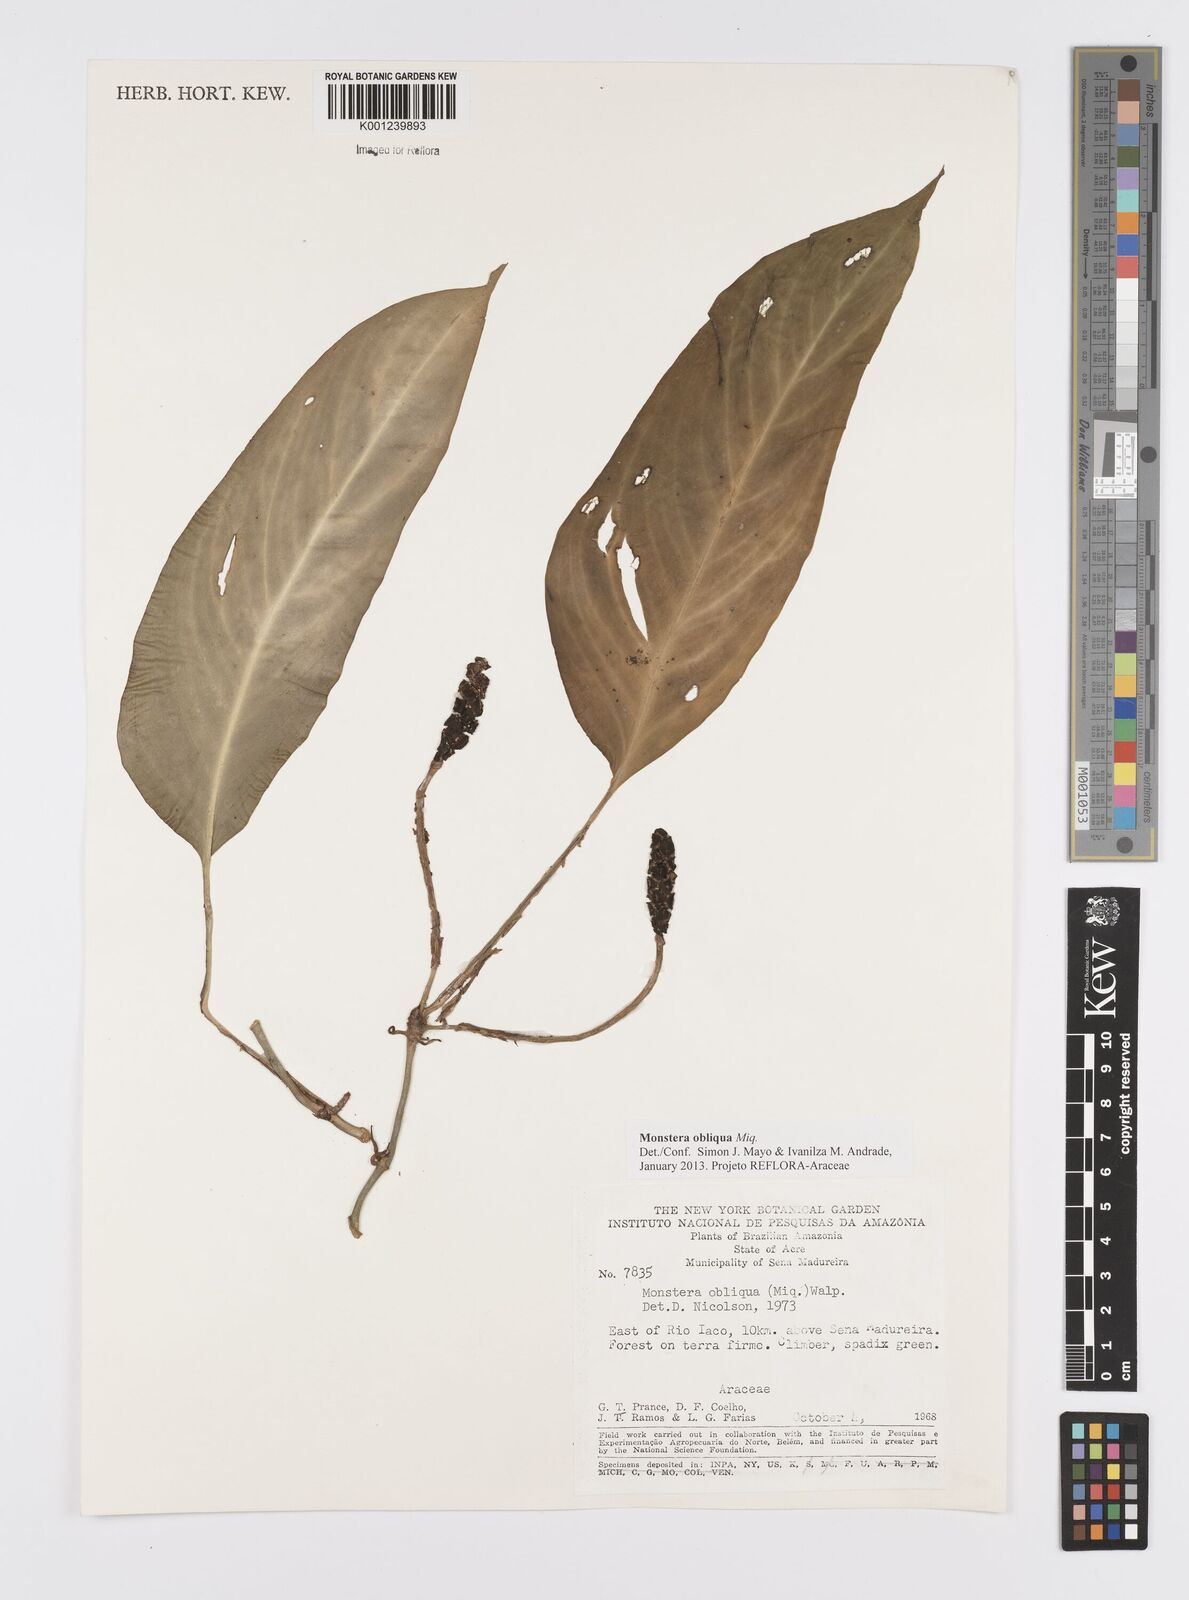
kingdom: Plantae
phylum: Tracheophyta
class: Liliopsida
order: Alismatales
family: Araceae
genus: Monstera
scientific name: Monstera obliqua
